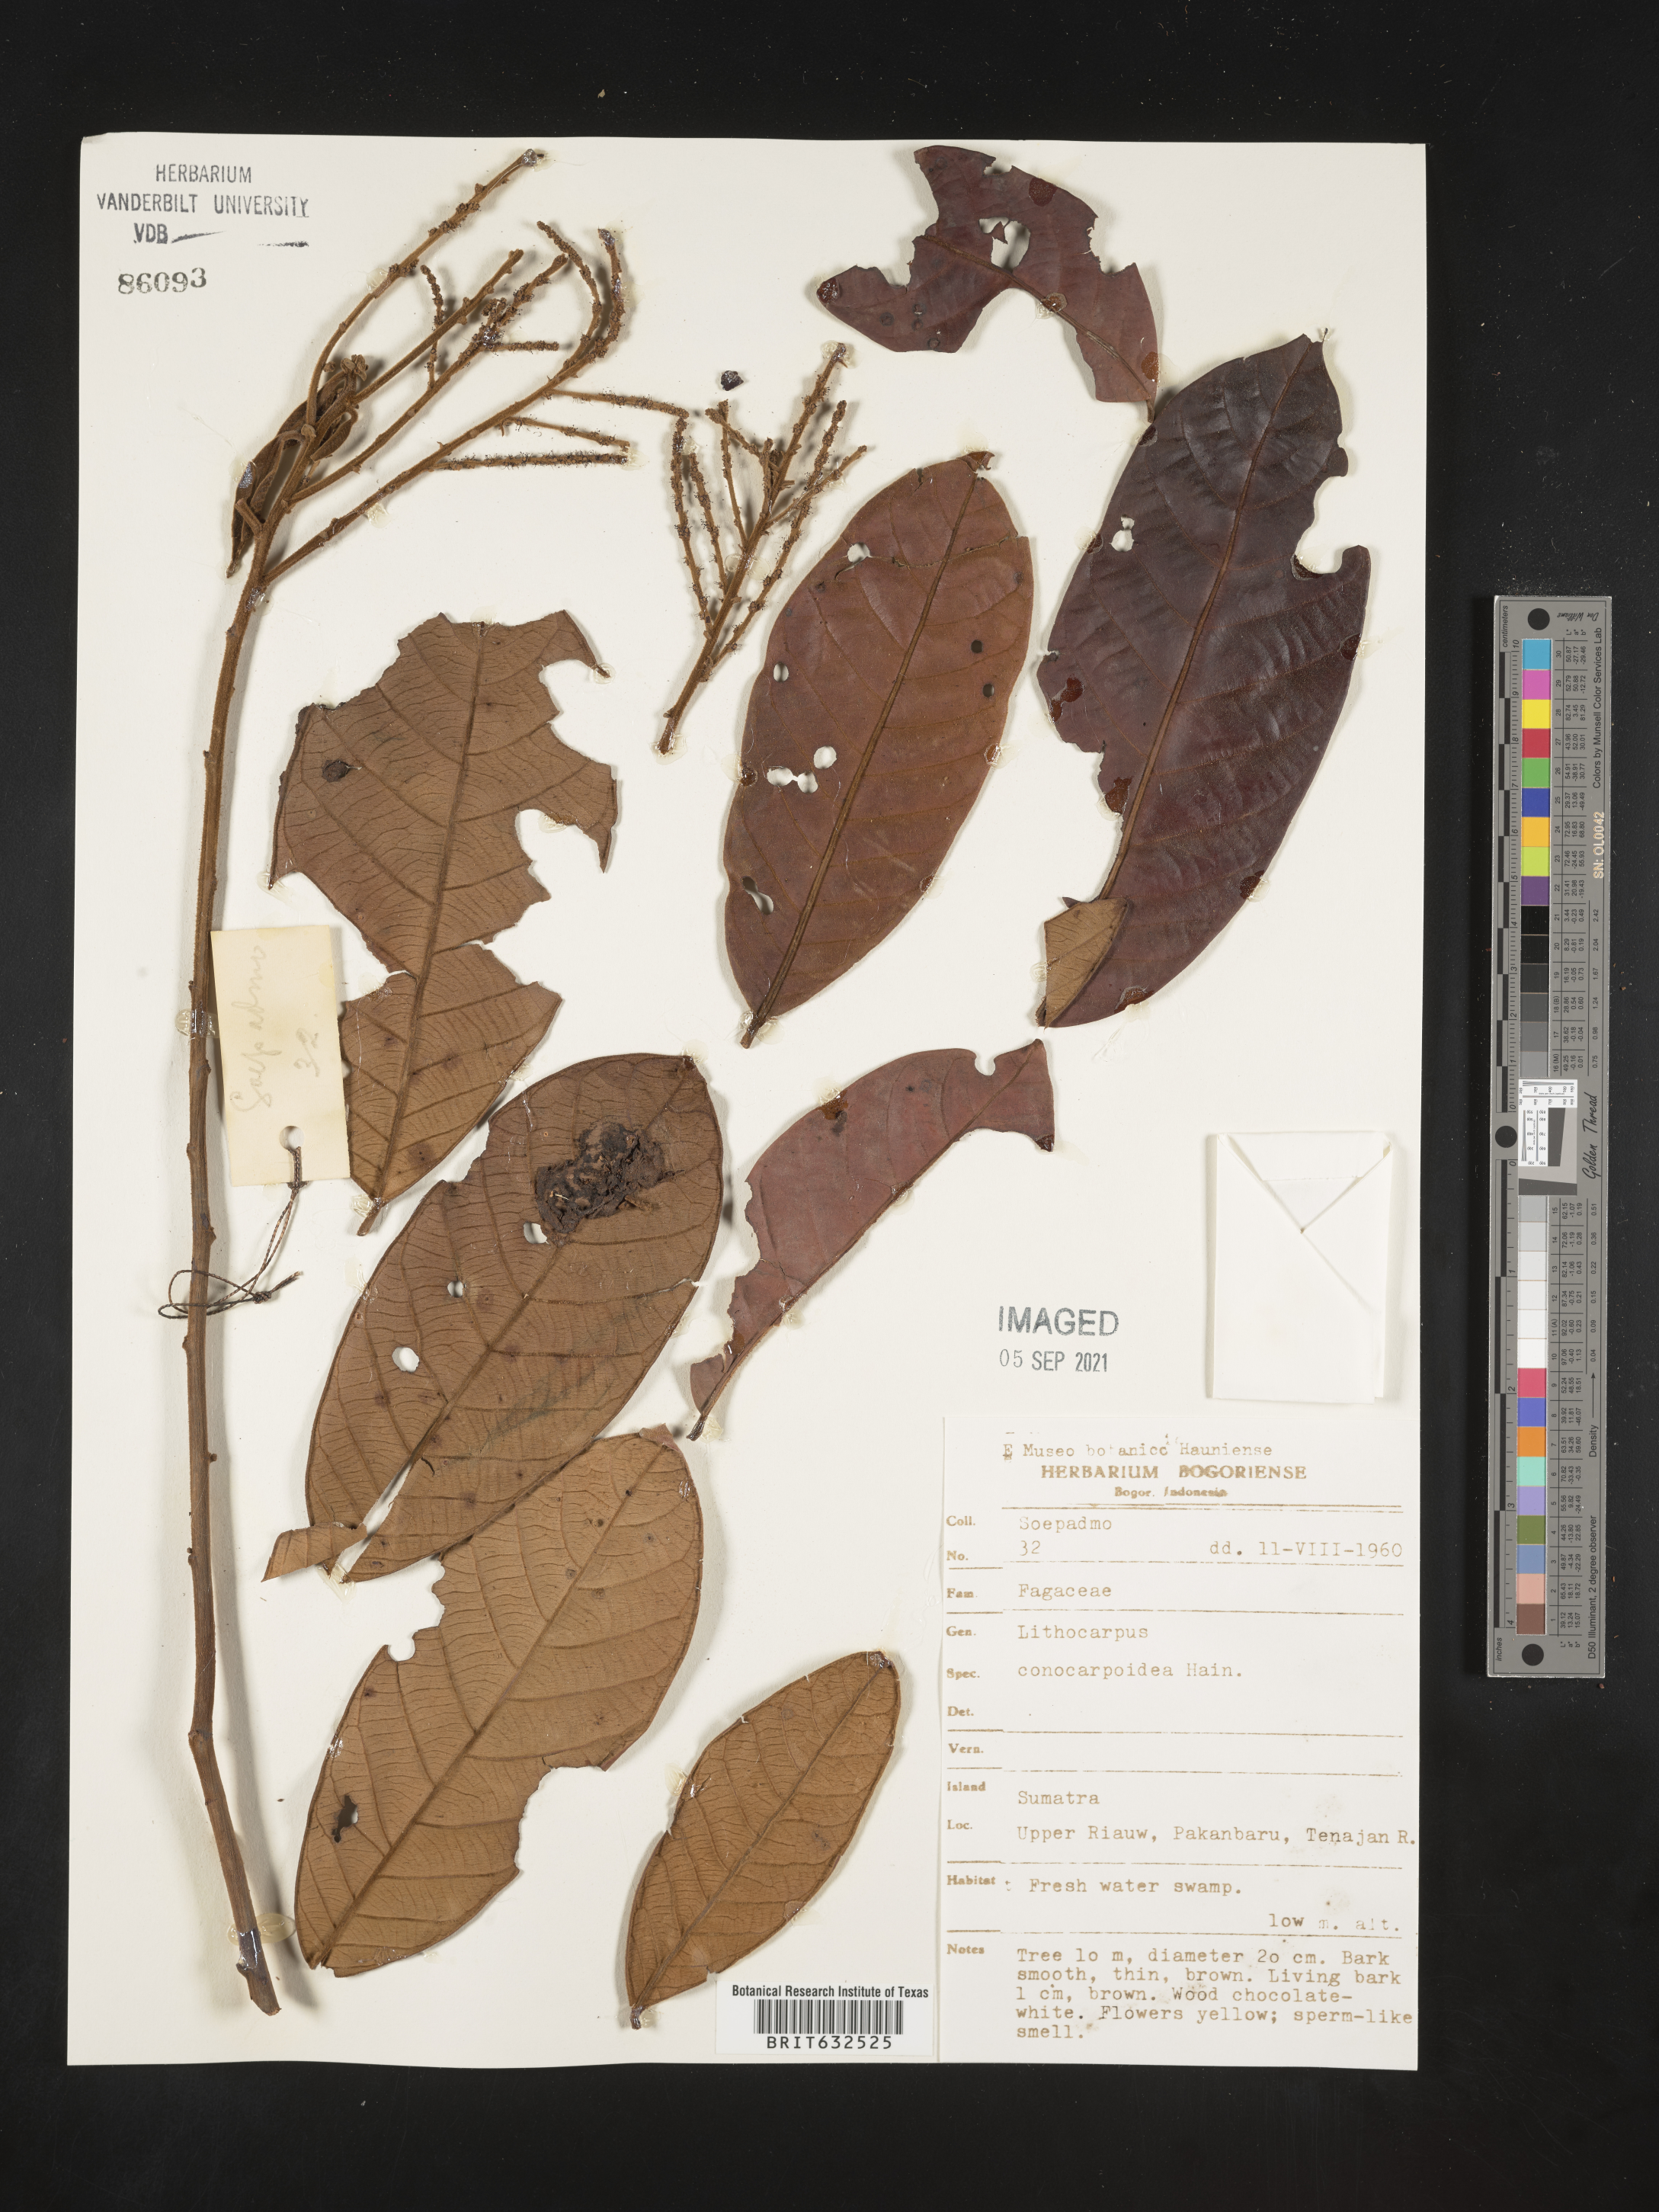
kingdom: Plantae
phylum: Tracheophyta
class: Magnoliopsida
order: Fagales
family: Fagaceae
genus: Lithocarpus
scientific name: Lithocarpus
